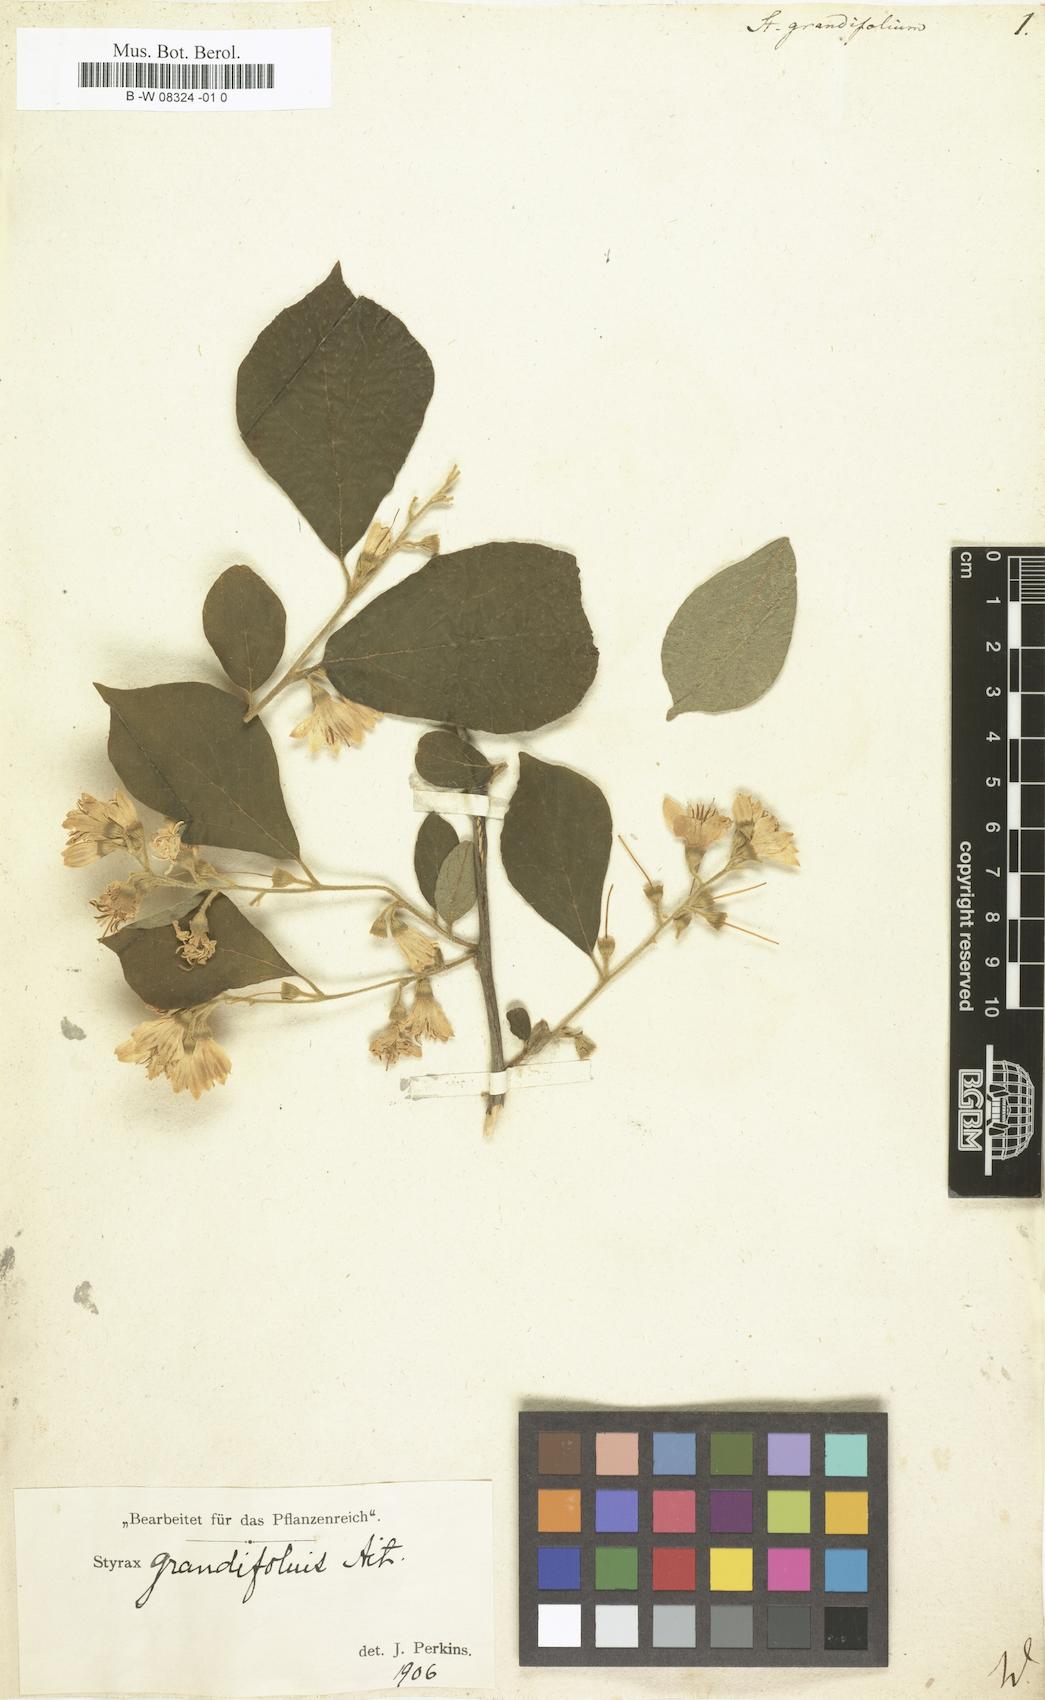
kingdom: Plantae
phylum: Tracheophyta
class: Magnoliopsida
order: Ericales
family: Styracaceae
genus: Styrax
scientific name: Styrax grandifolius
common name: Big-leaf snowbell
